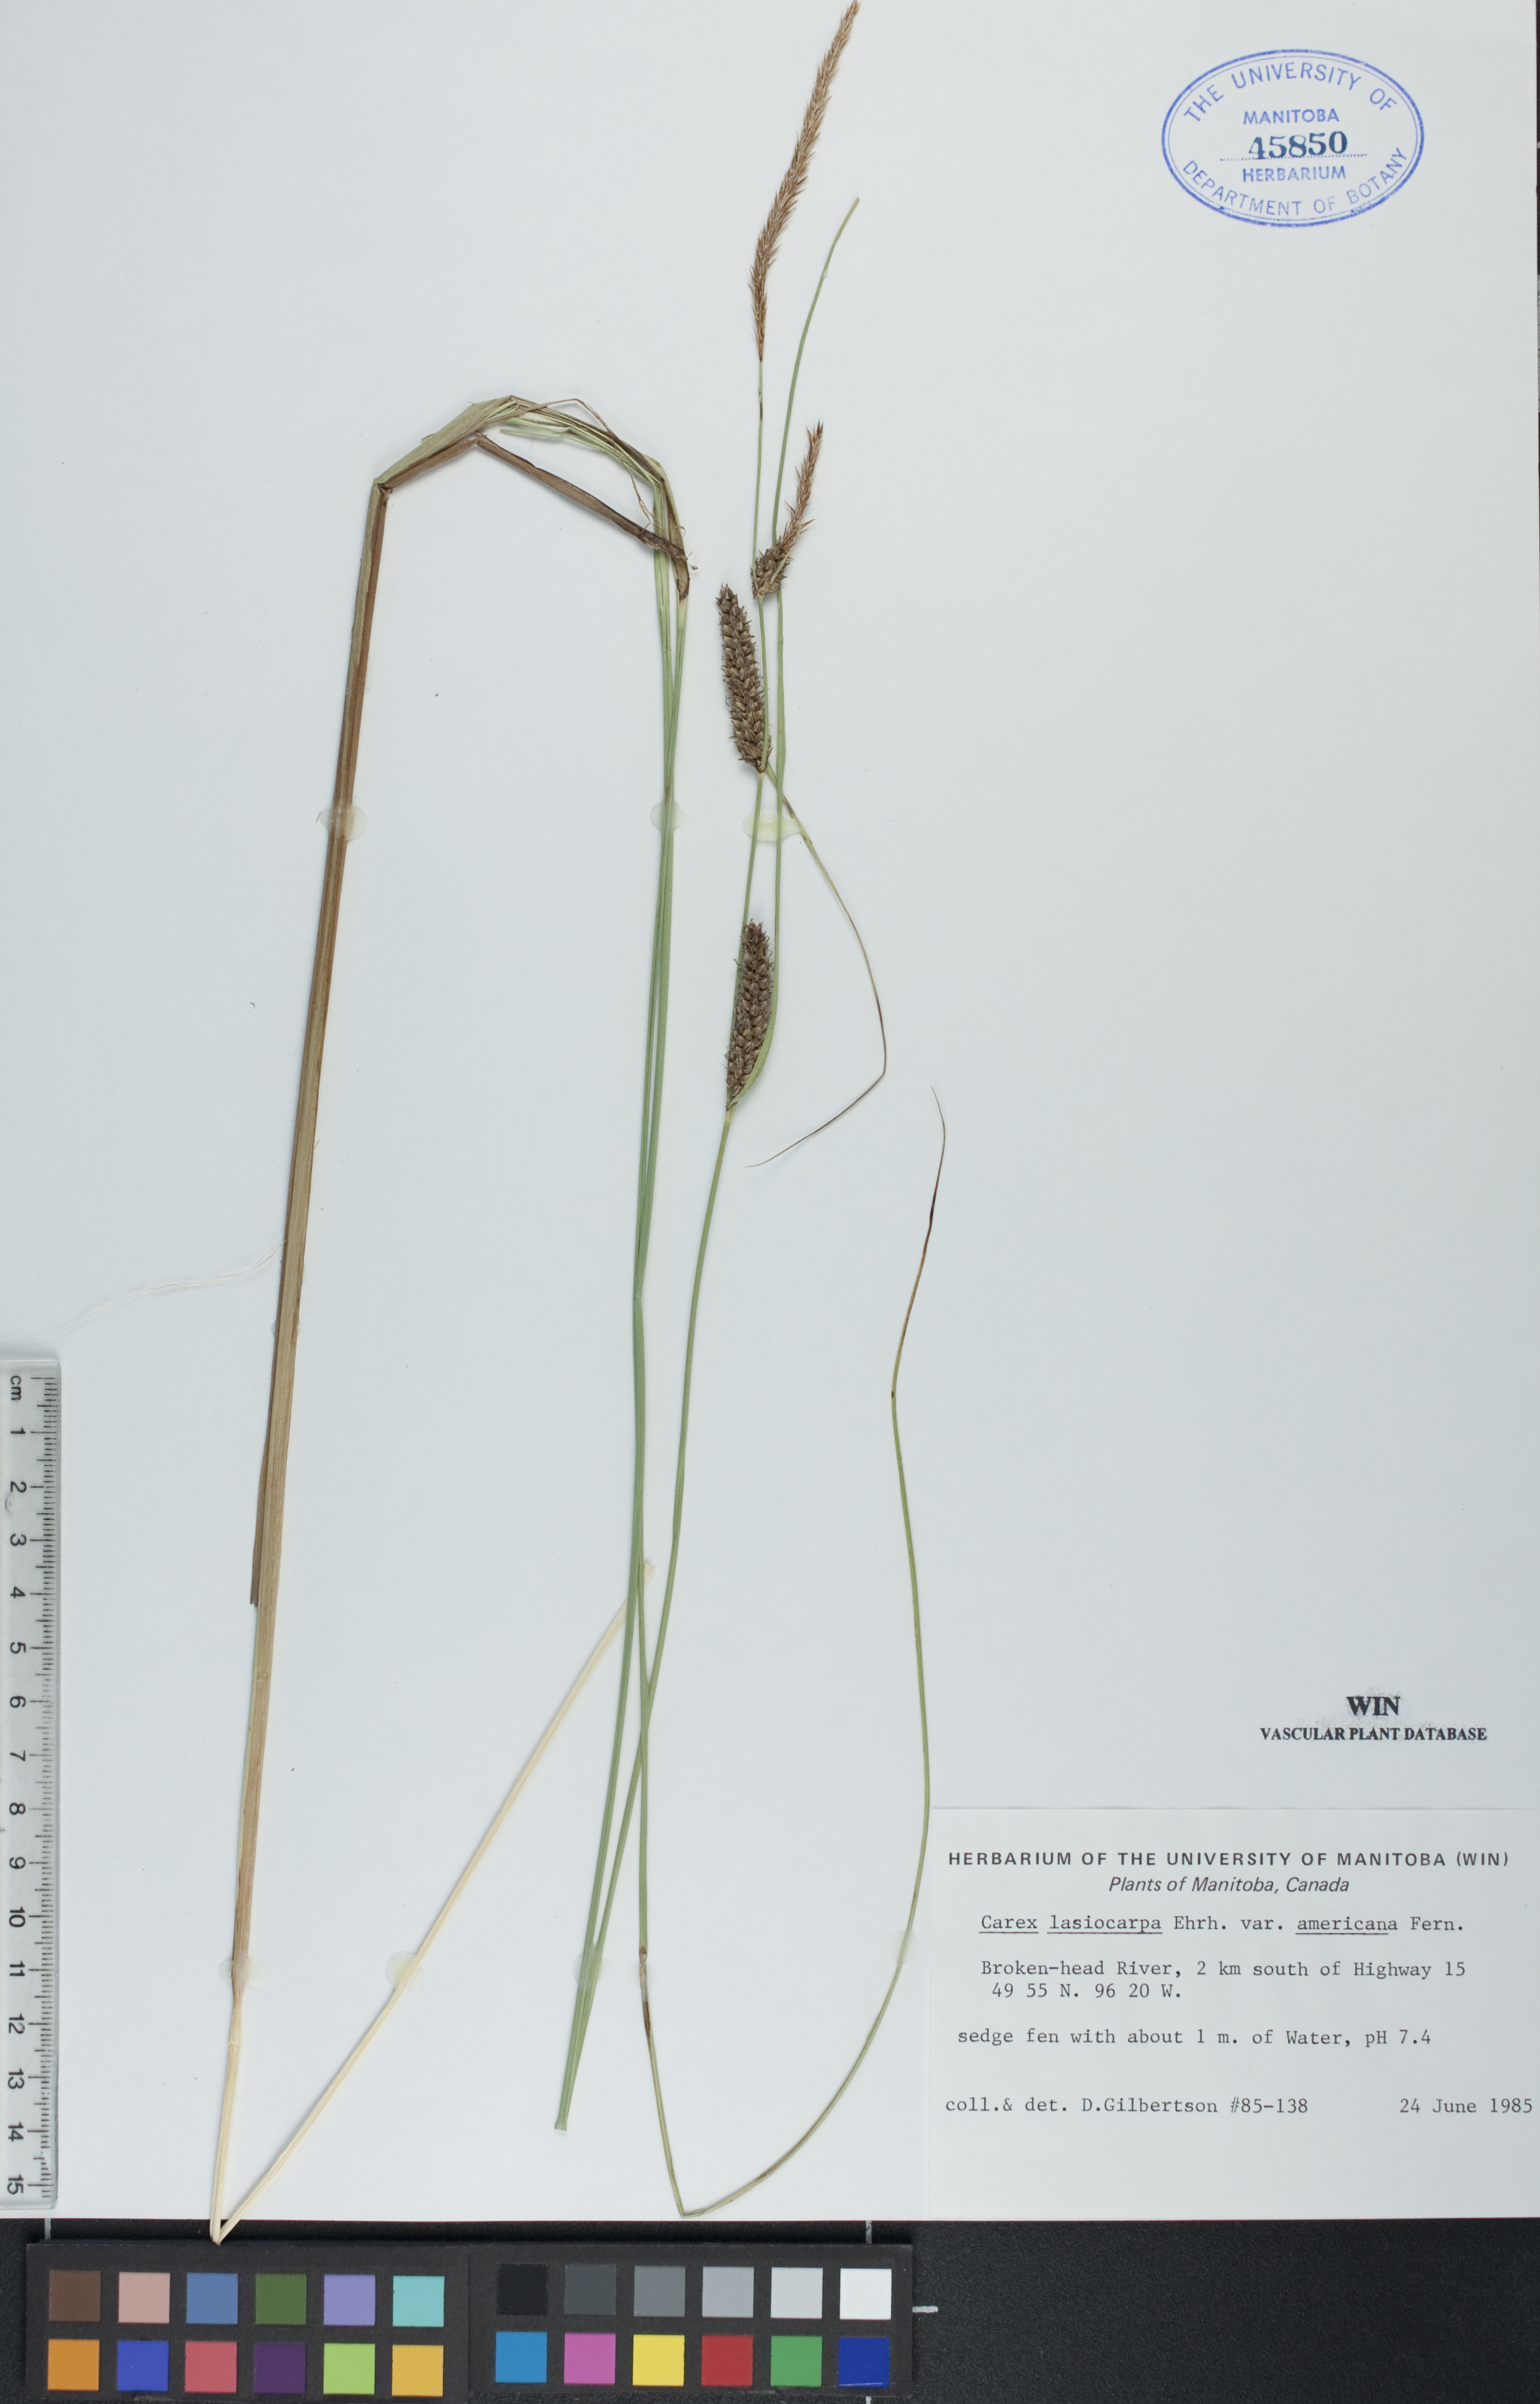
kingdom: Plantae
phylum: Tracheophyta
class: Liliopsida
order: Poales
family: Cyperaceae
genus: Carex
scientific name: Carex lasiocarpa
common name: Slender sedge
